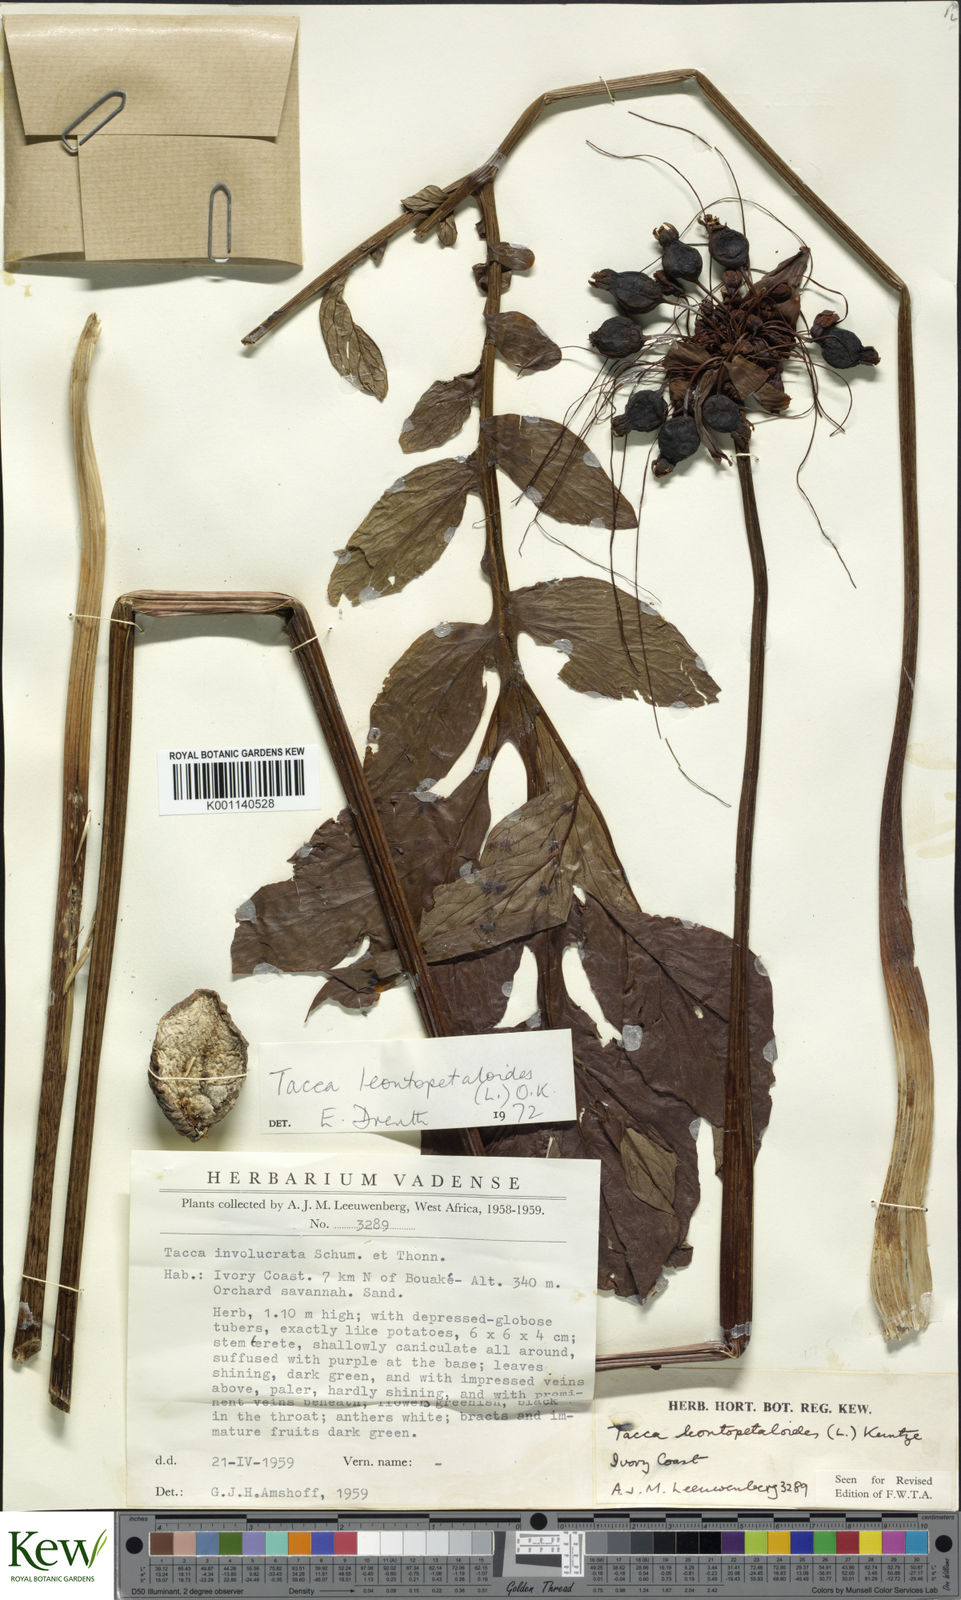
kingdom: Plantae
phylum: Tracheophyta
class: Liliopsida
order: Dioscoreales
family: Dioscoreaceae
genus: Tacca
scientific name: Tacca leontopetaloides
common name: Arrowroot
